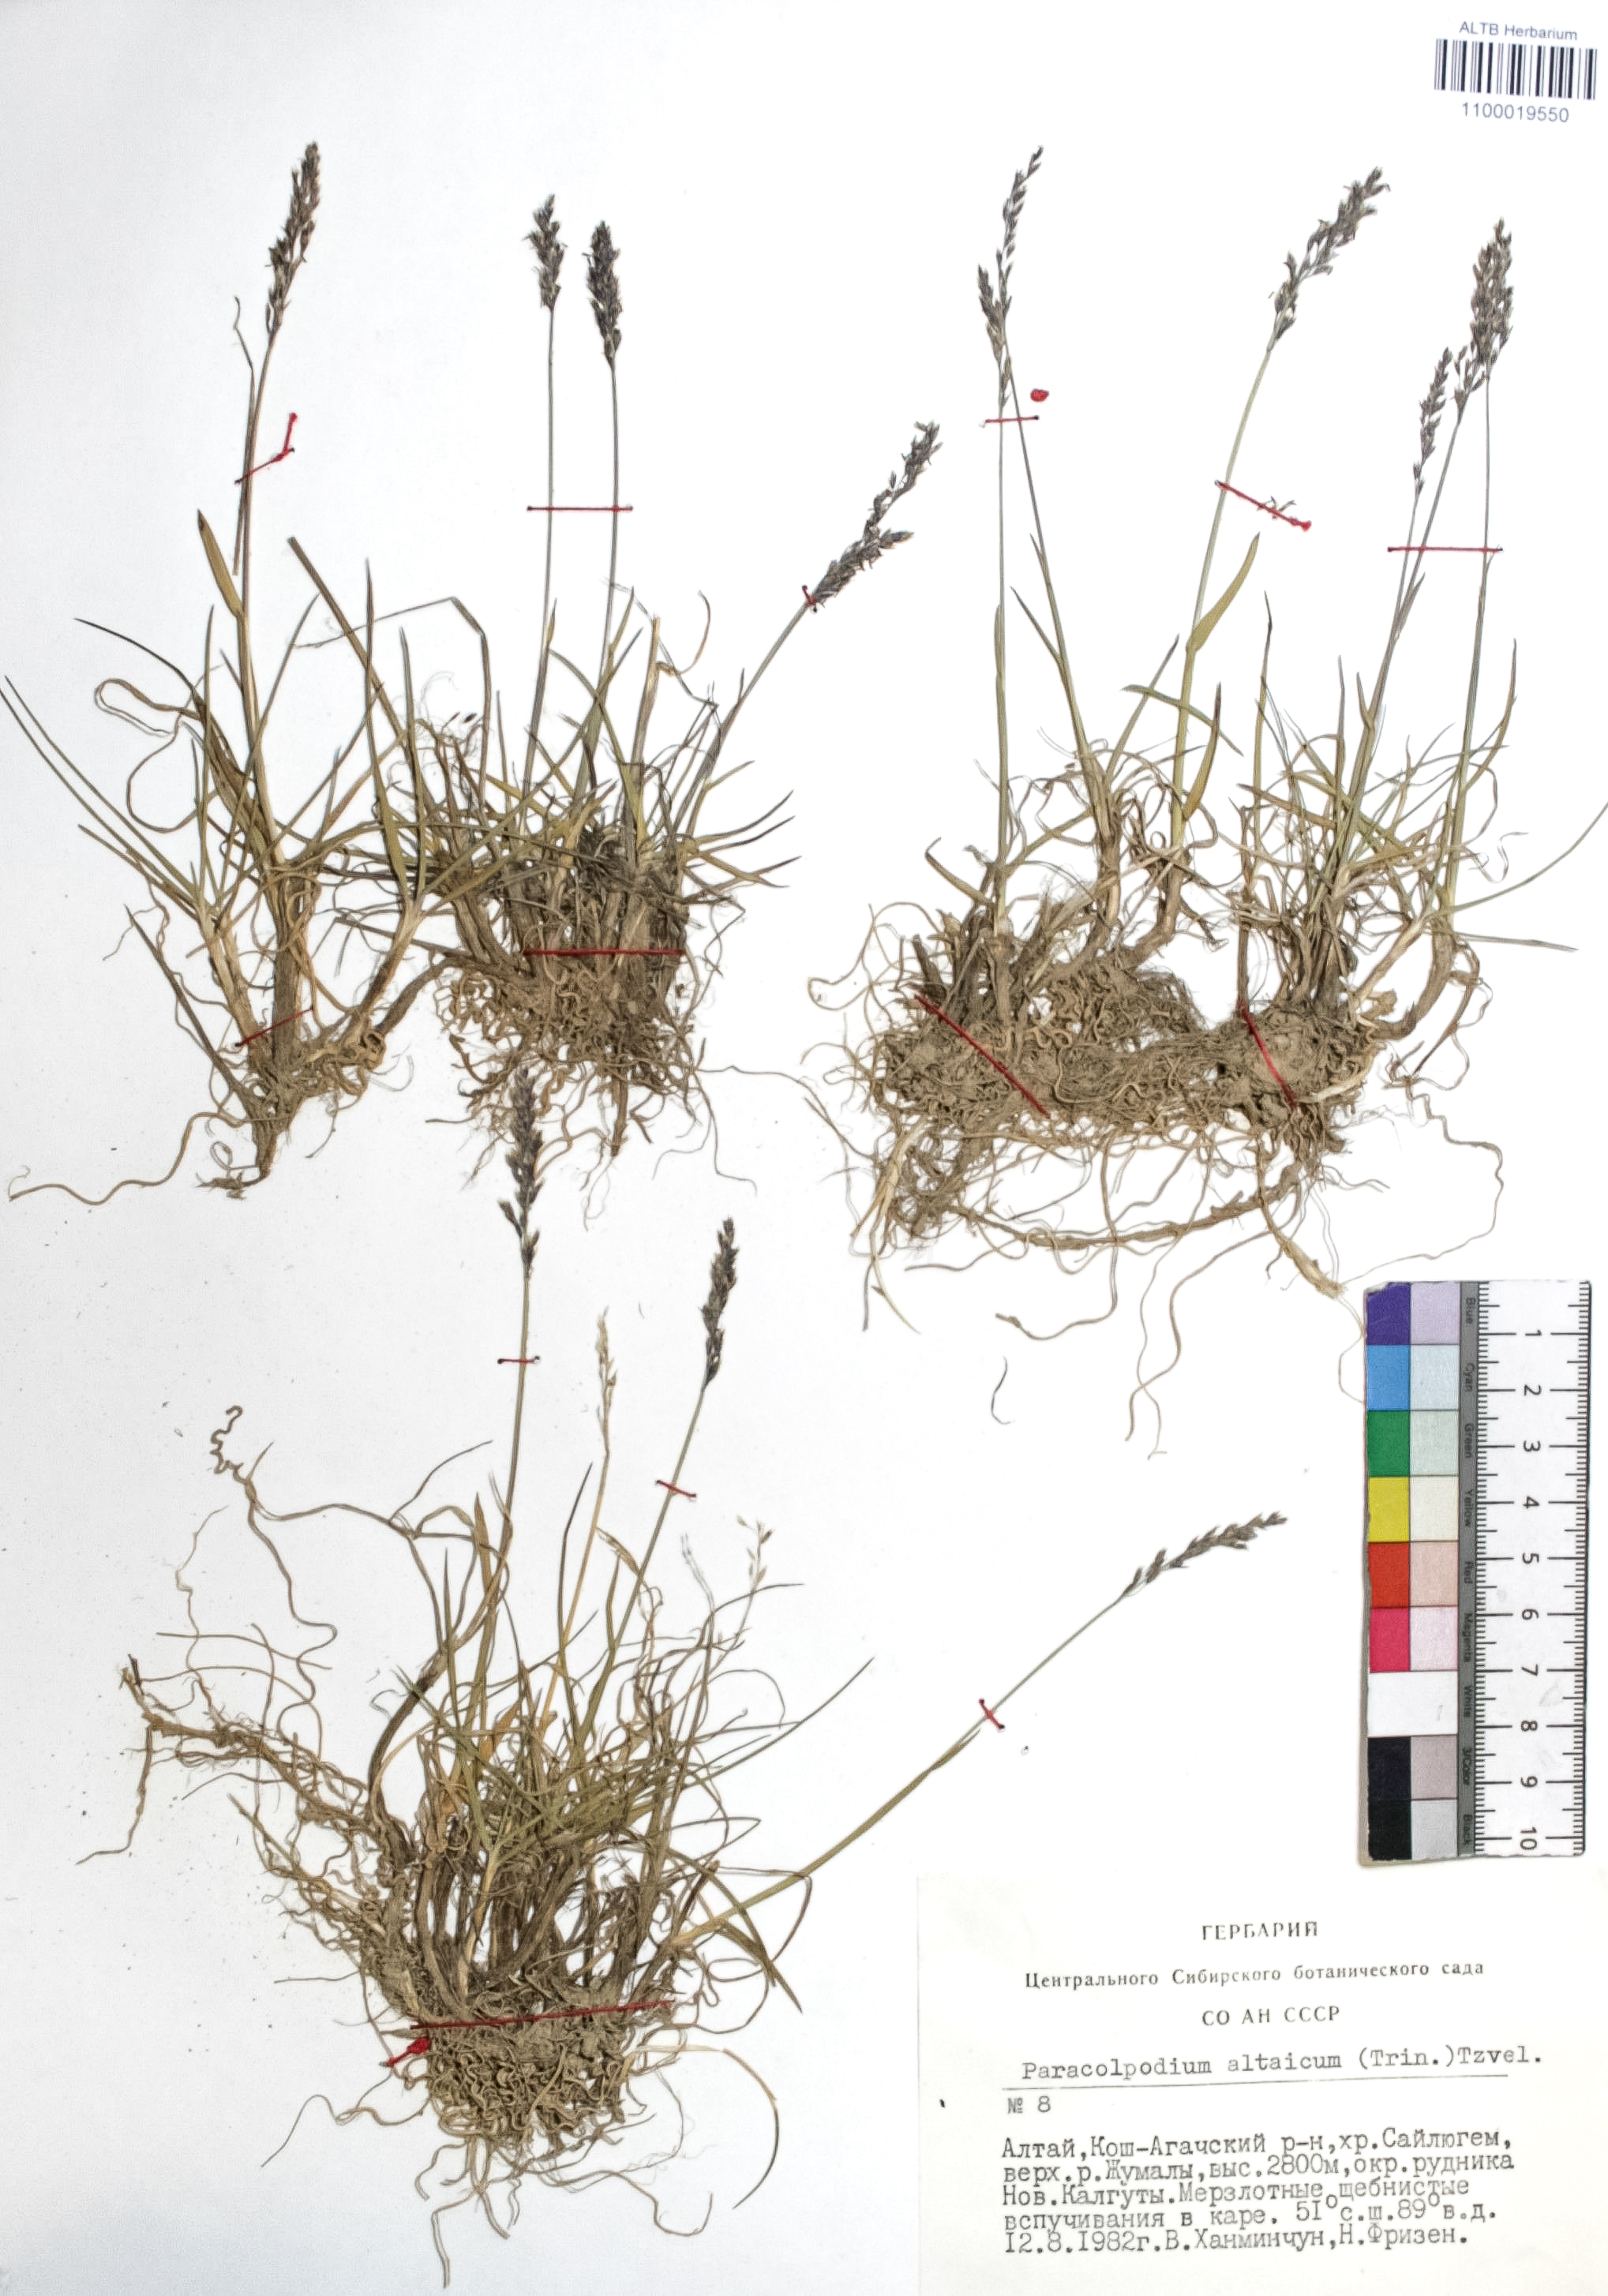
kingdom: Plantae
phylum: Tracheophyta
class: Liliopsida
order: Poales
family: Poaceae
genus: Paracolpodium
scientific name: Paracolpodium altaicum
